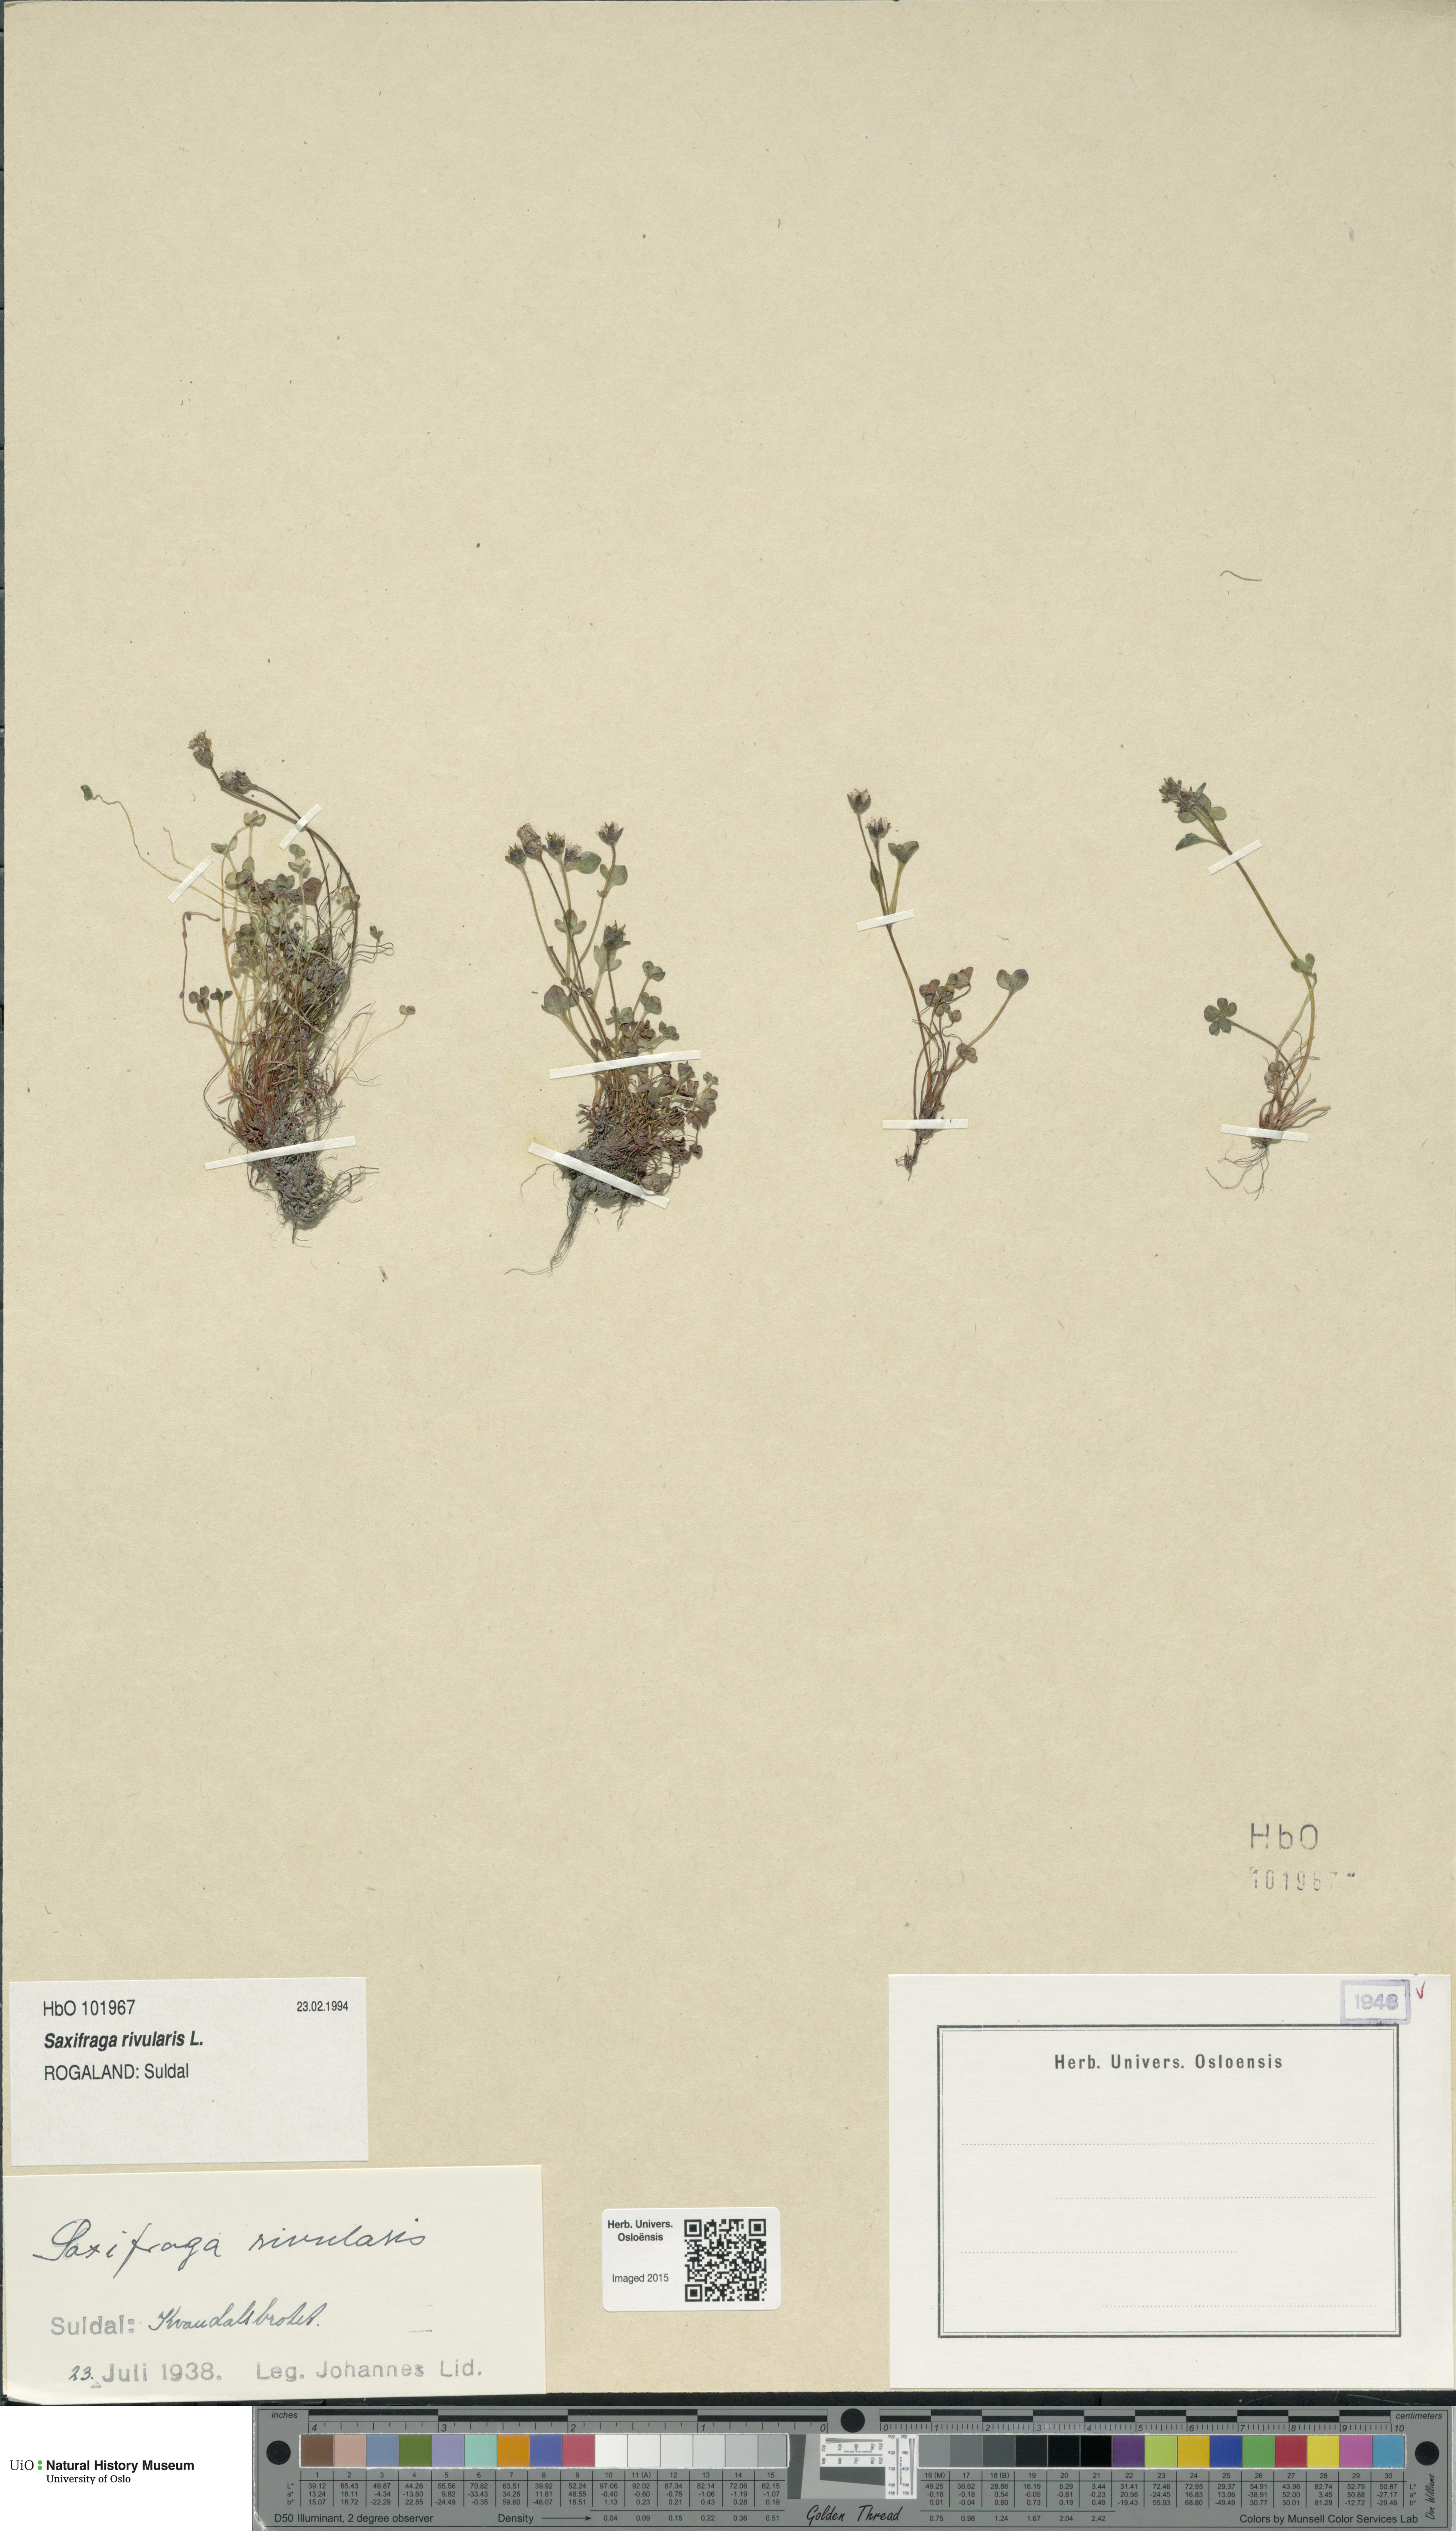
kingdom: Plantae
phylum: Tracheophyta
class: Magnoliopsida
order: Saxifragales
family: Saxifragaceae
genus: Saxifraga
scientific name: Saxifraga rivularis
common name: Highland saxifrage
